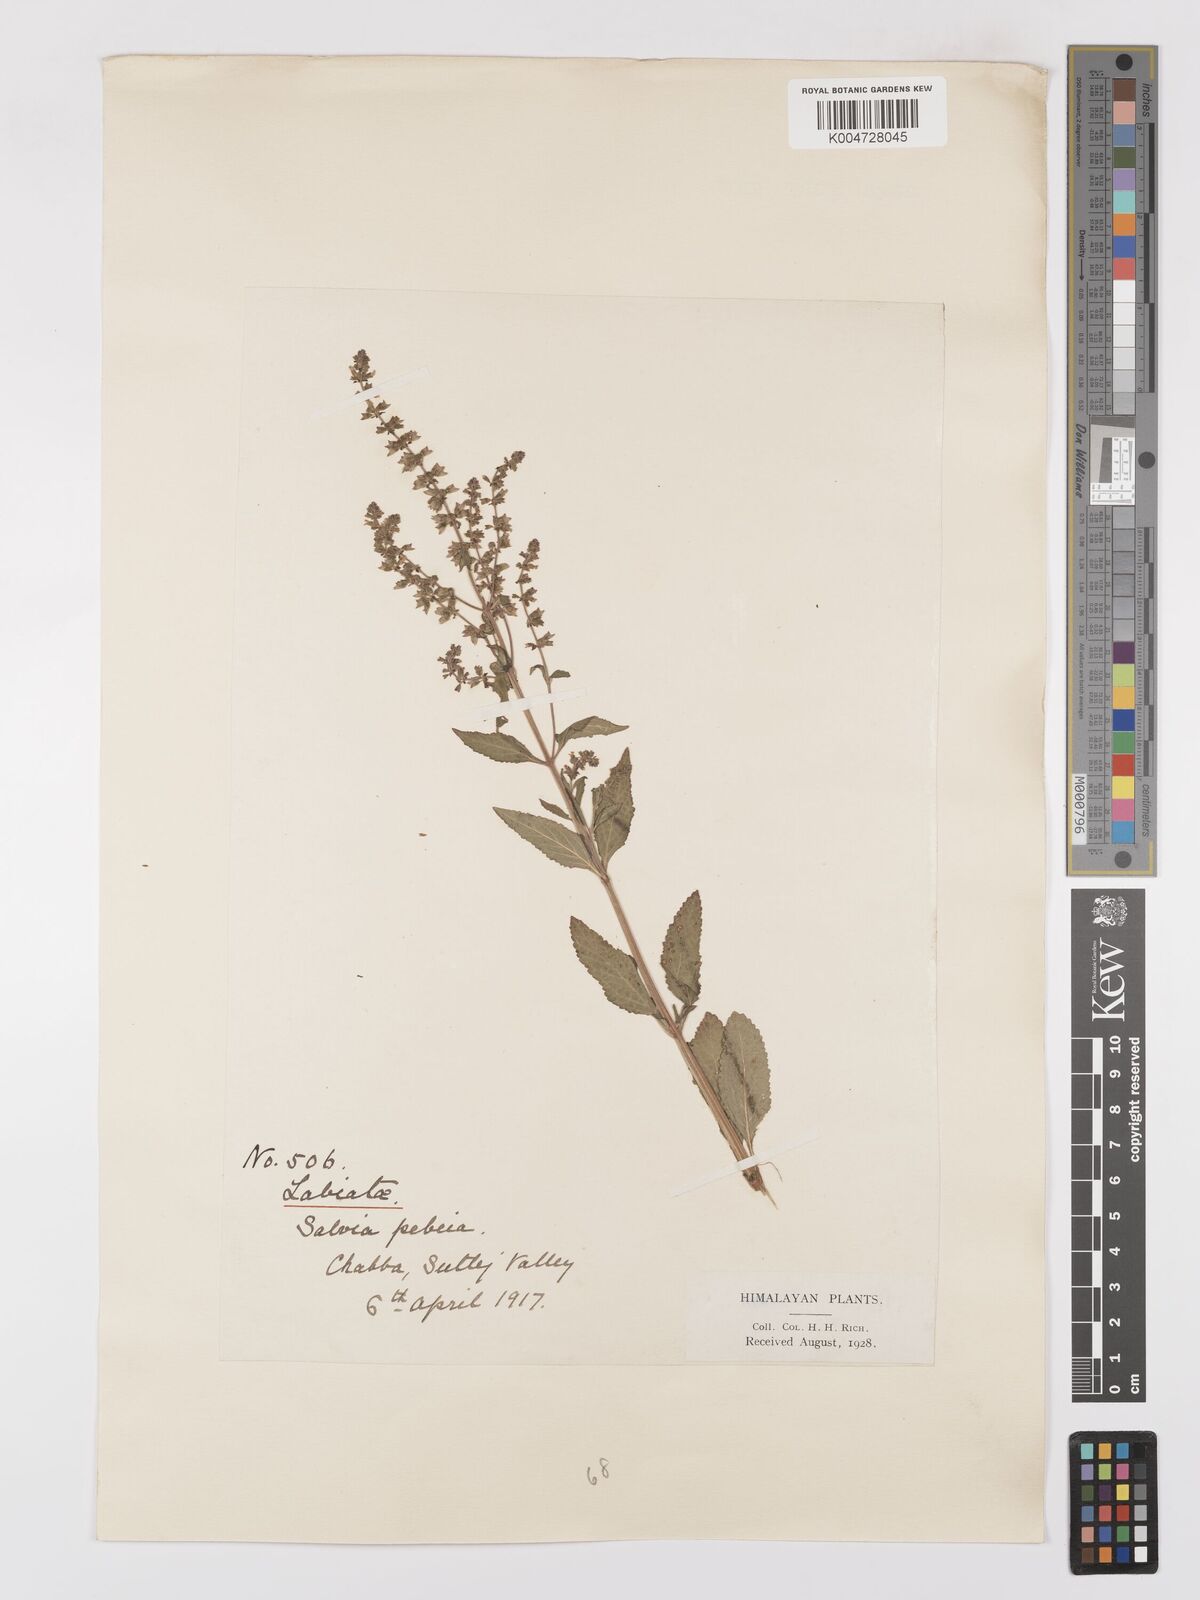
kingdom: Plantae
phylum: Tracheophyta
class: Magnoliopsida
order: Lamiales
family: Lamiaceae
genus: Salvia
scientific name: Salvia plebeia
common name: Australian sage
